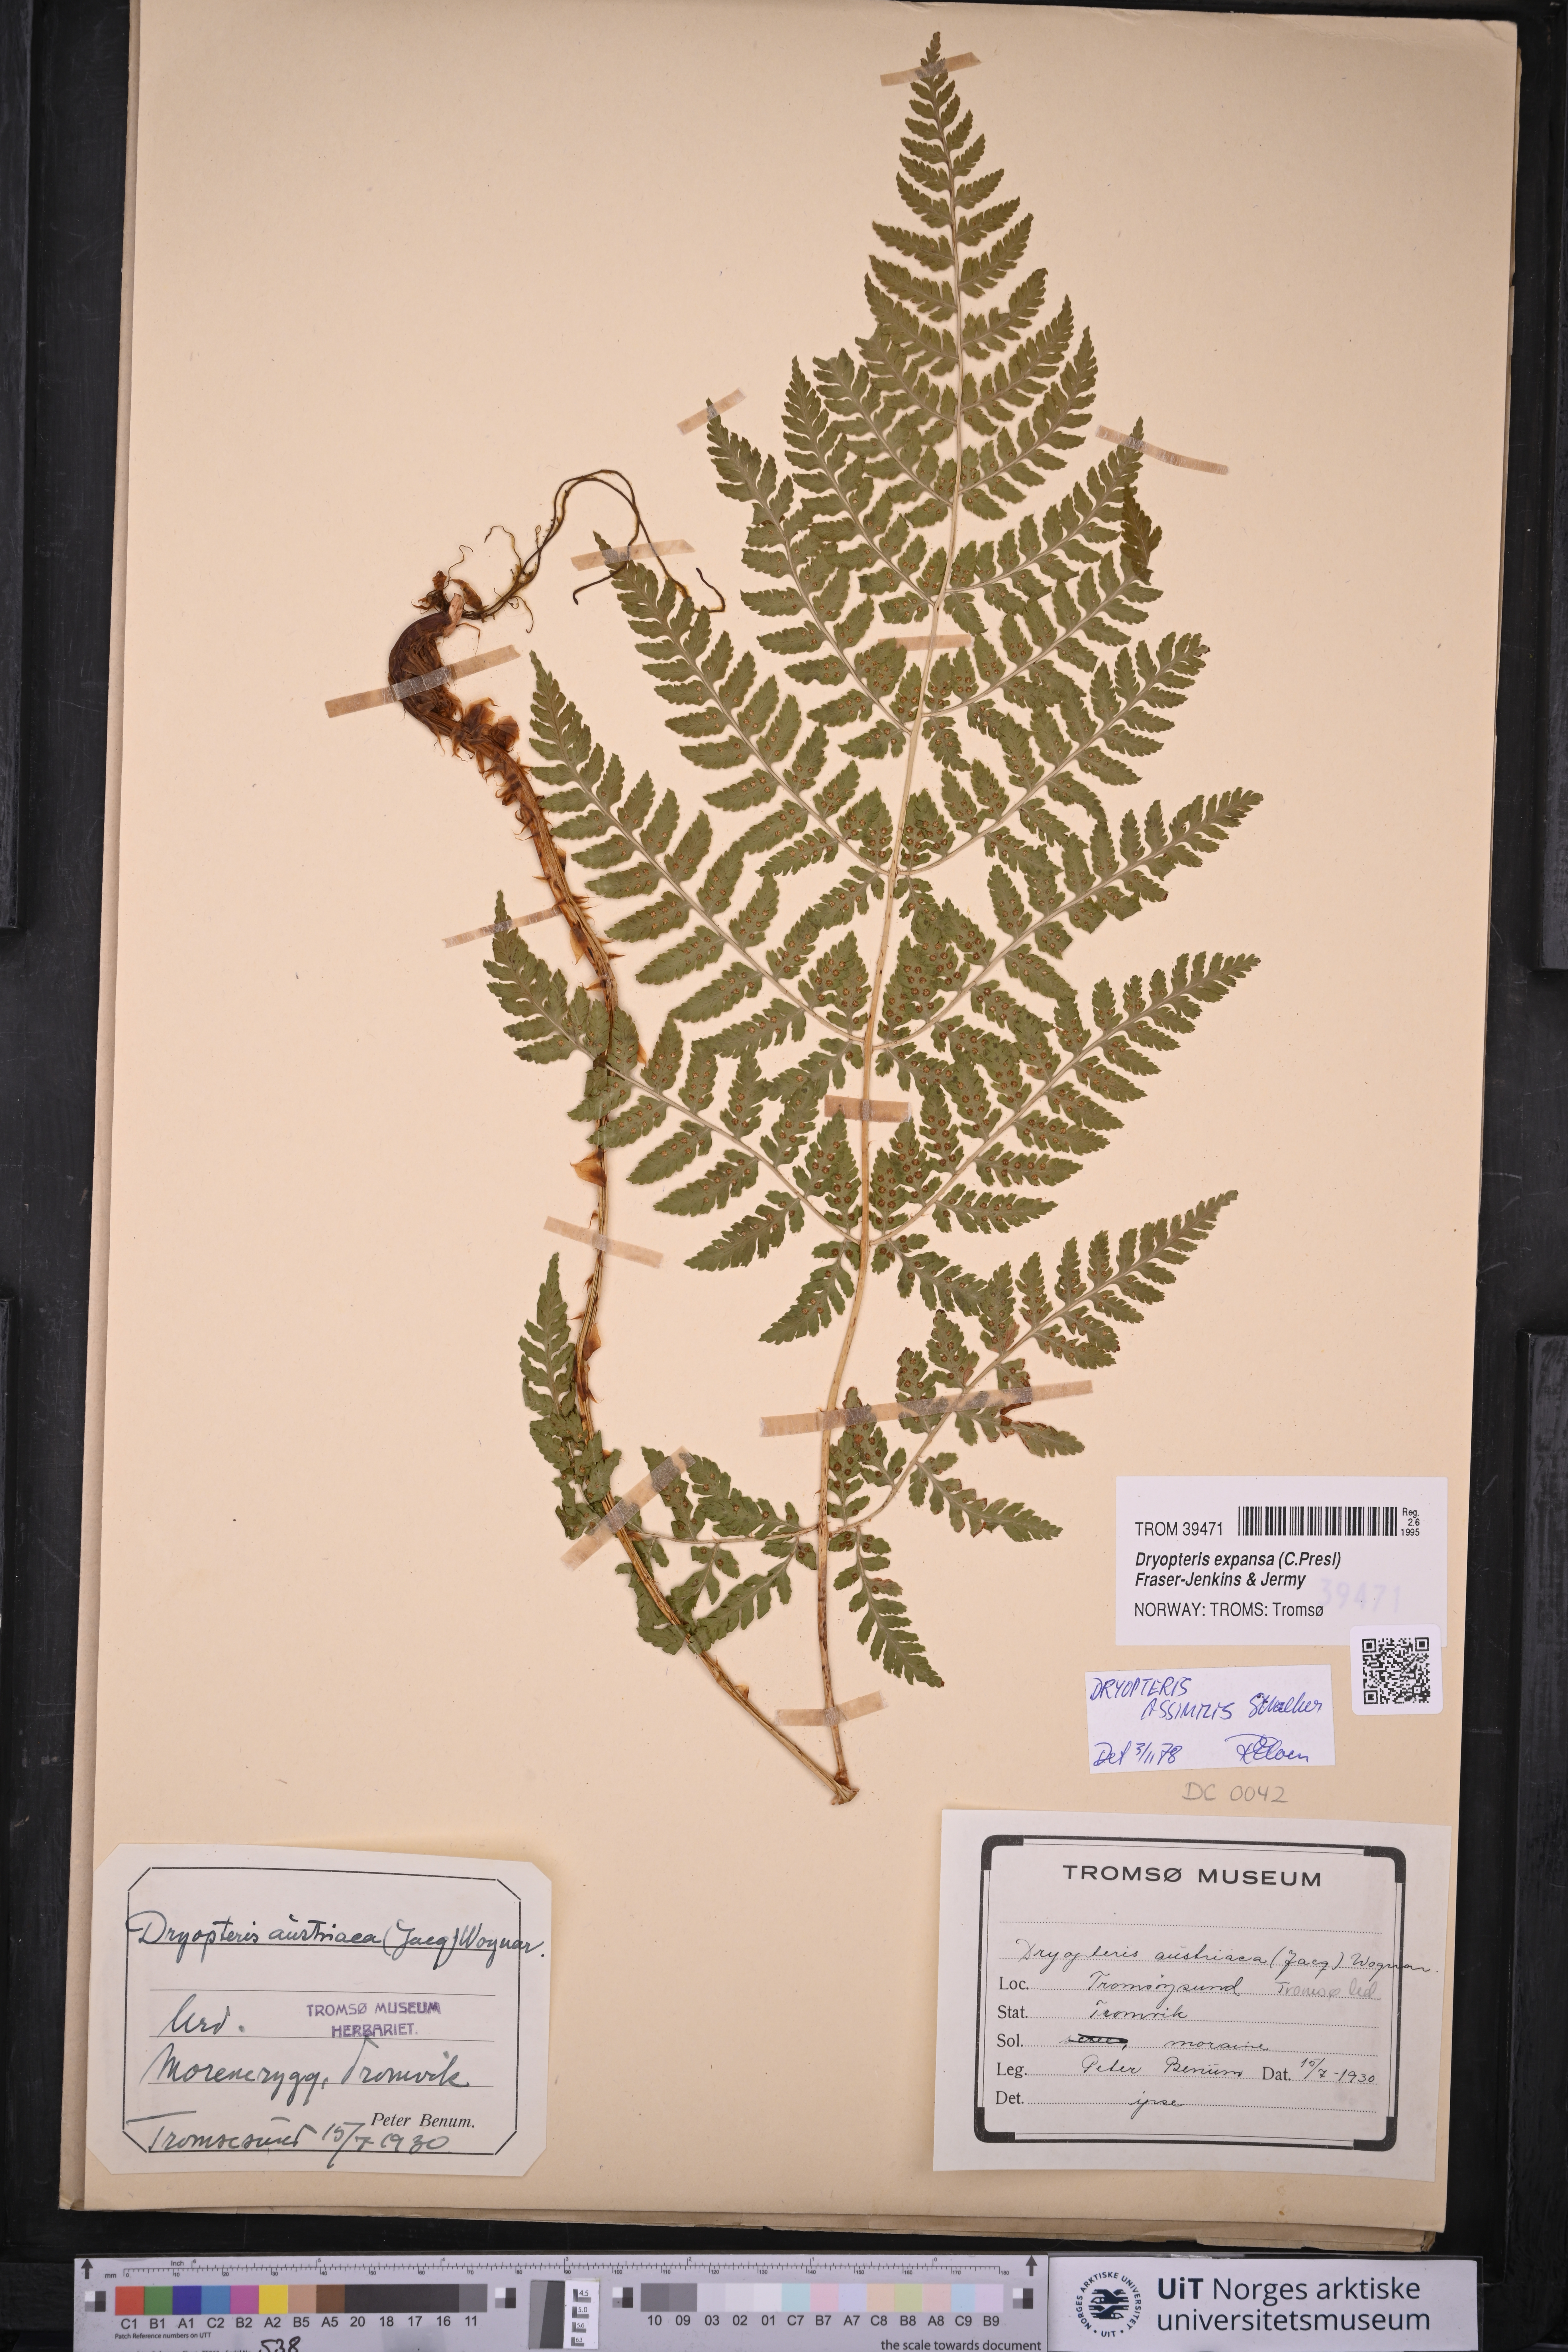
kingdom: Plantae
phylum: Tracheophyta
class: Polypodiopsida
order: Polypodiales
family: Dryopteridaceae
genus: Dryopteris
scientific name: Dryopteris expansa
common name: Northern buckler fern
